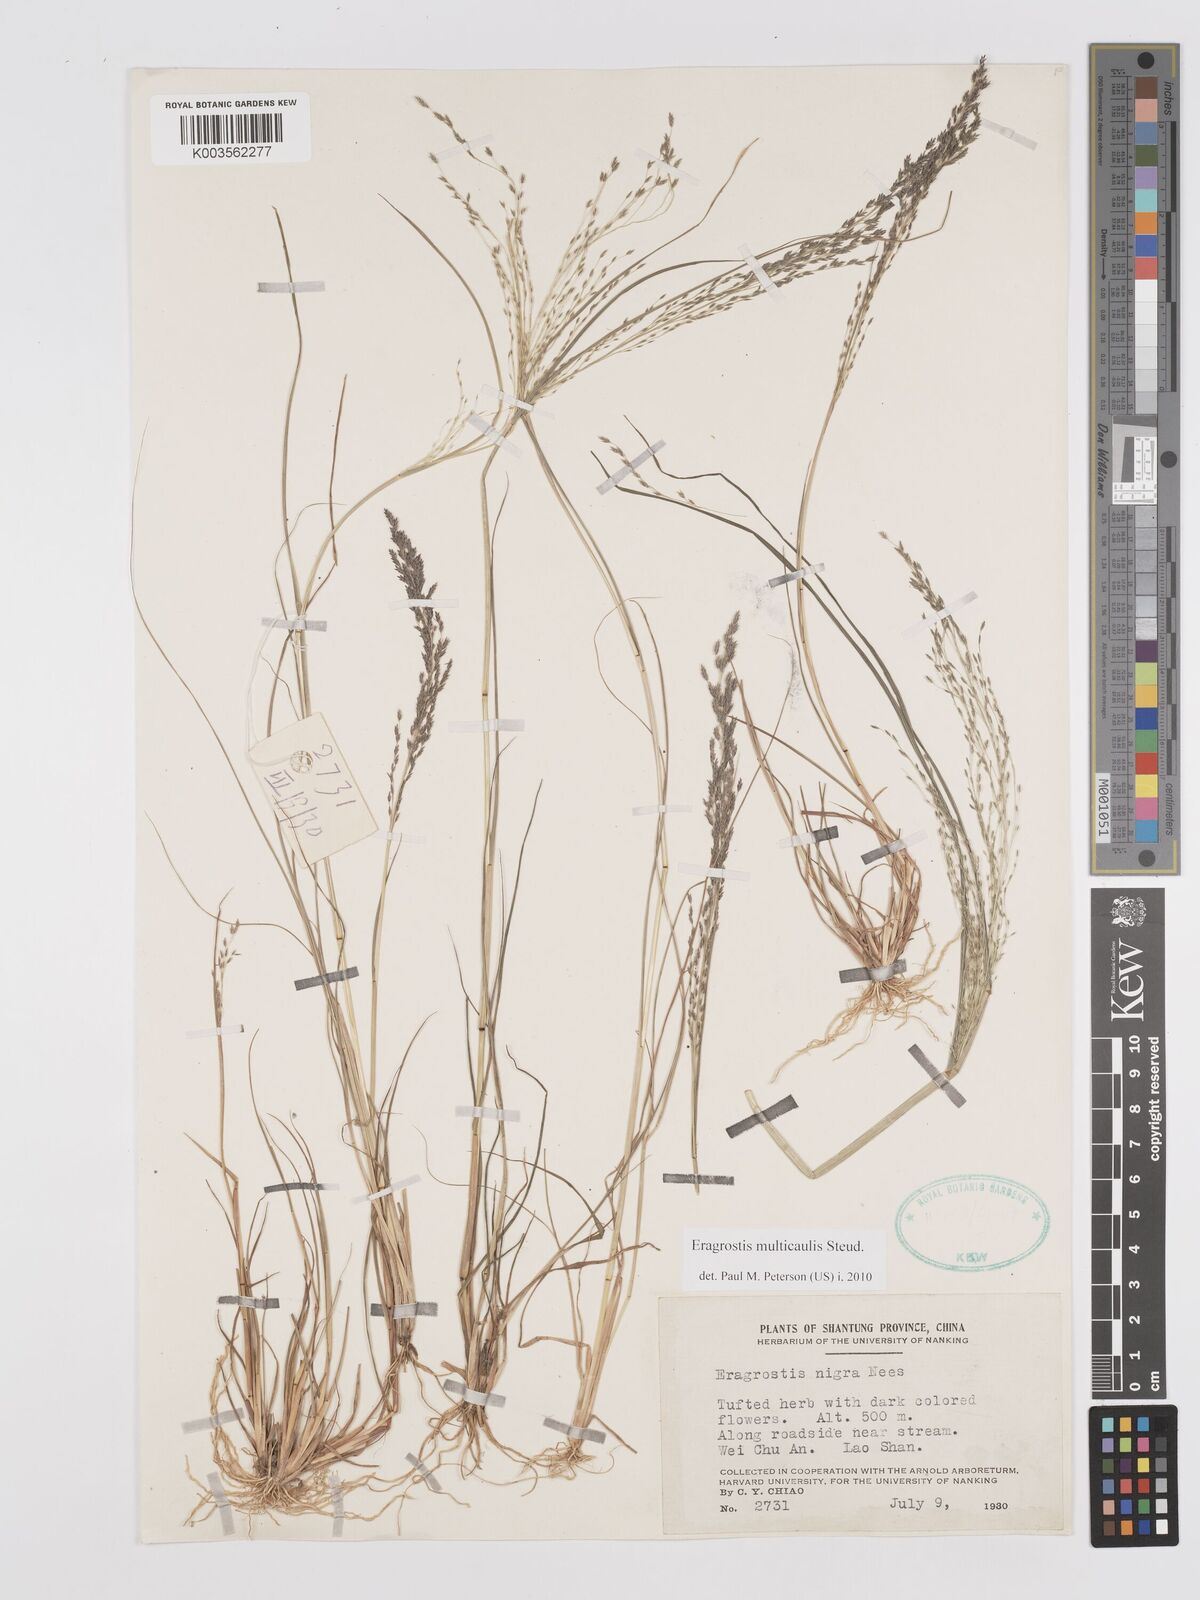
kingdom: Plantae
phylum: Tracheophyta
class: Liliopsida
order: Poales
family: Poaceae
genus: Eragrostis
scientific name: Eragrostis pilosa
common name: Indian lovegrass
